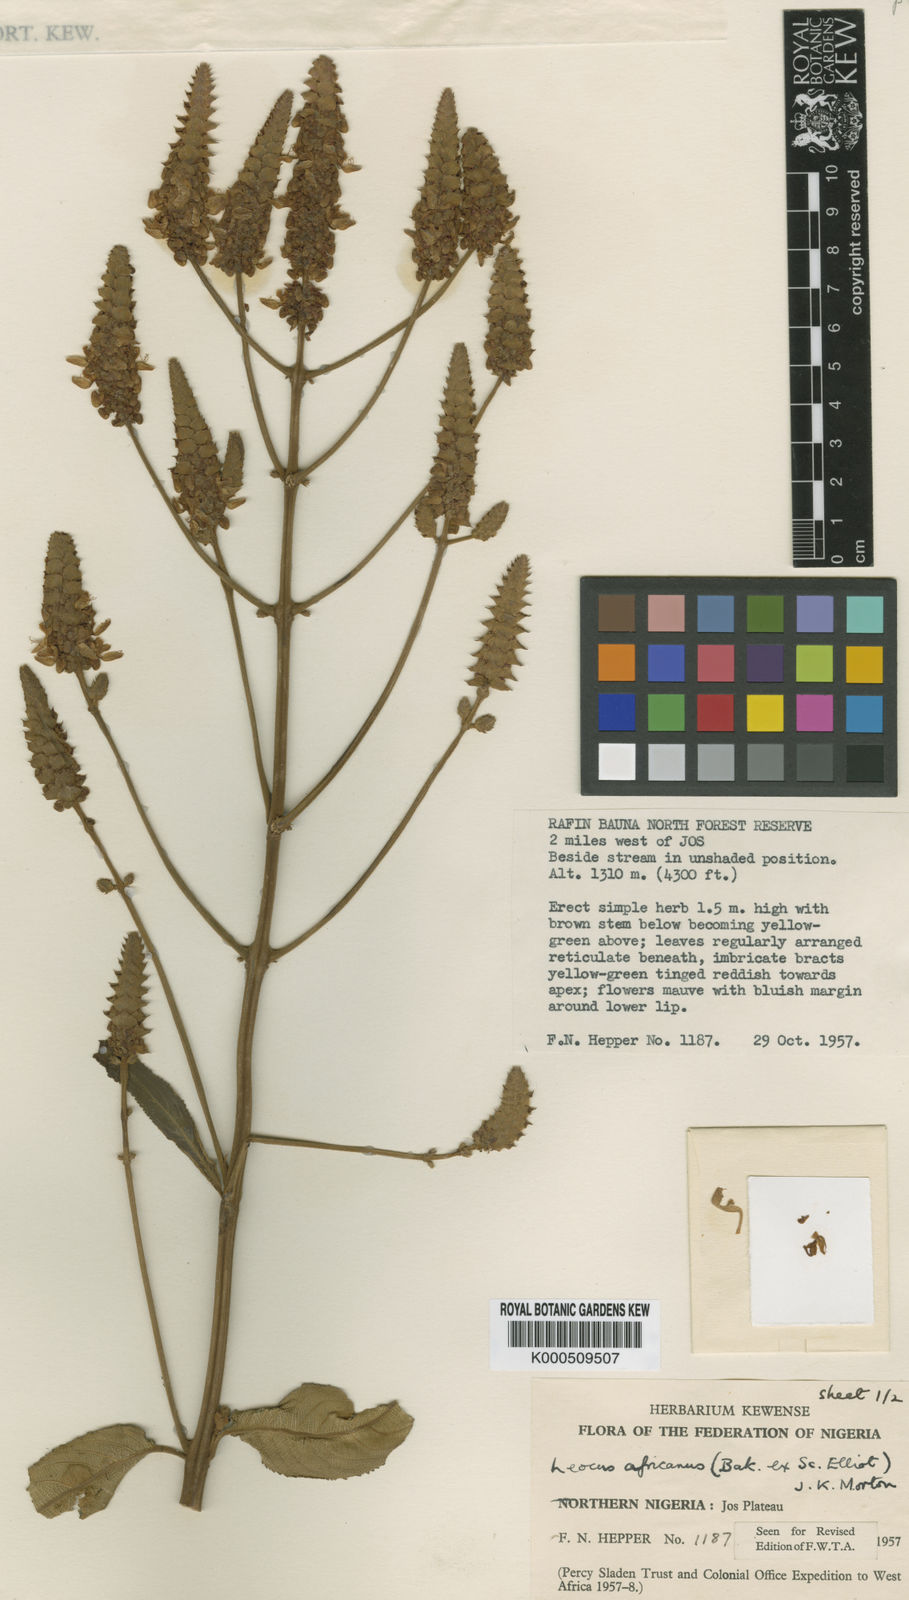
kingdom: Plantae
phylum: Tracheophyta
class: Magnoliopsida
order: Lamiales
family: Lamiaceae
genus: Coleus
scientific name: Coleus engleri
